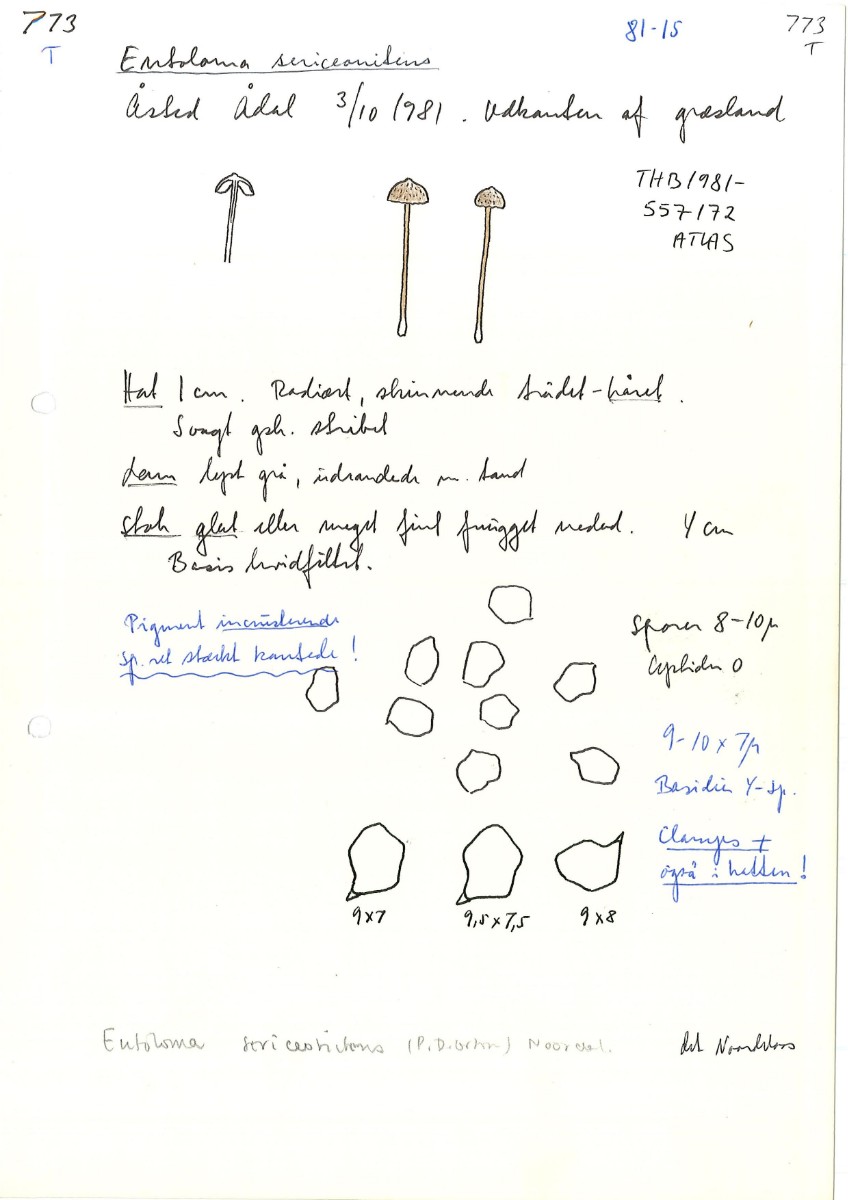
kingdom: Fungi
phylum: Basidiomycota
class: Agaricomycetes
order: Agaricales
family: Entolomataceae
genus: Entoloma
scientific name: Entoloma fuscotomentosum
